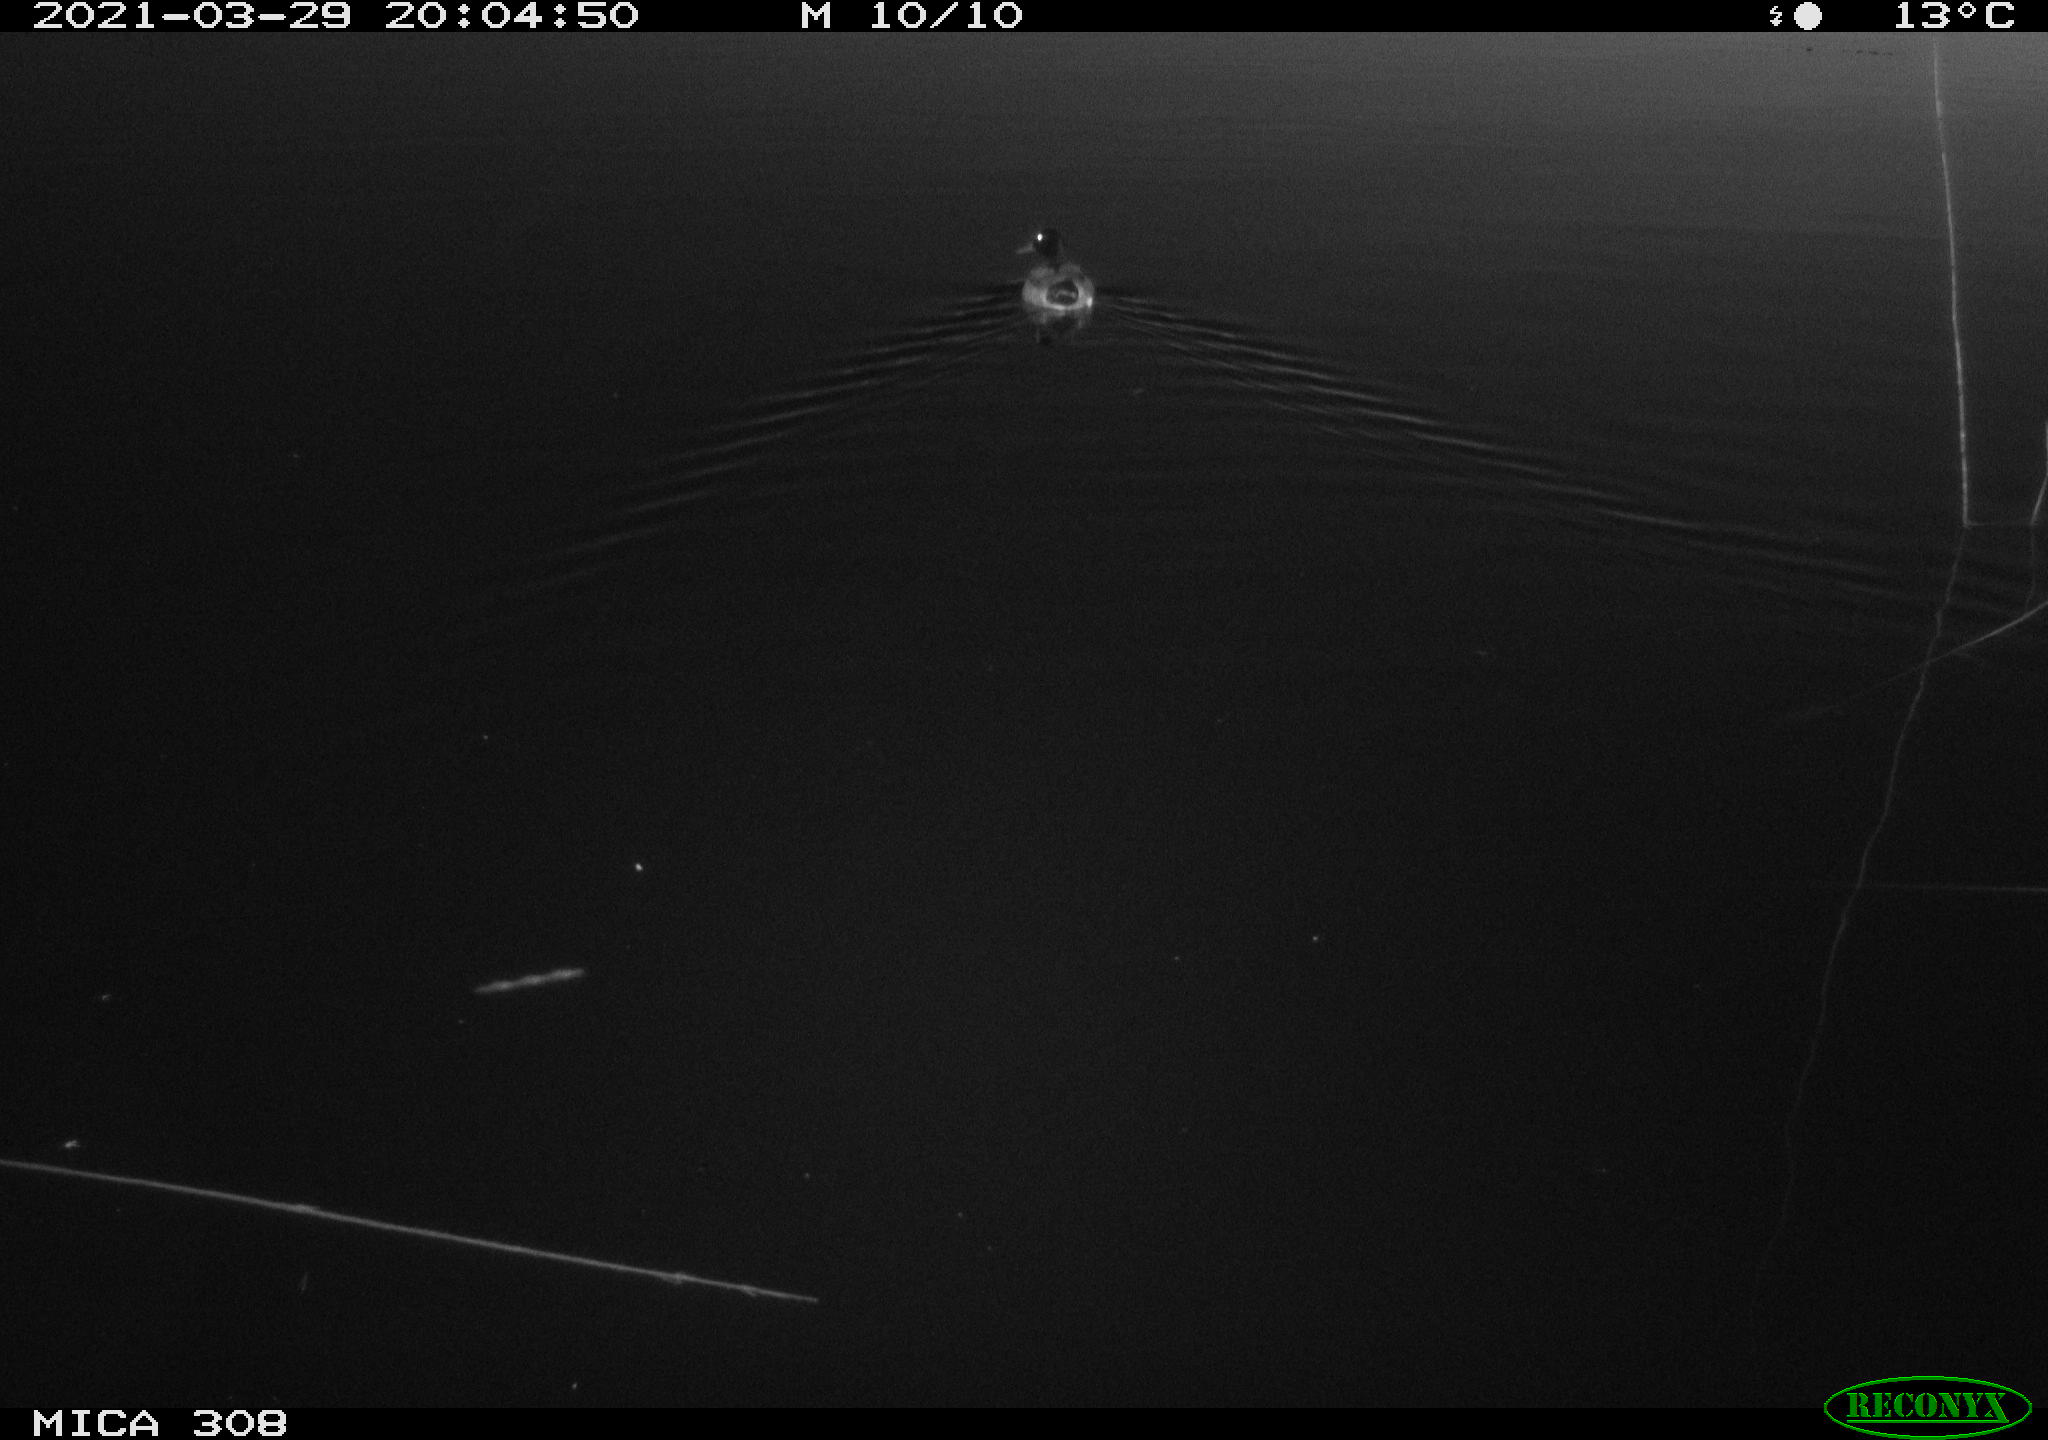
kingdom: Animalia
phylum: Chordata
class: Aves
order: Anseriformes
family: Anatidae
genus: Anas
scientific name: Anas platyrhynchos
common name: Mallard
